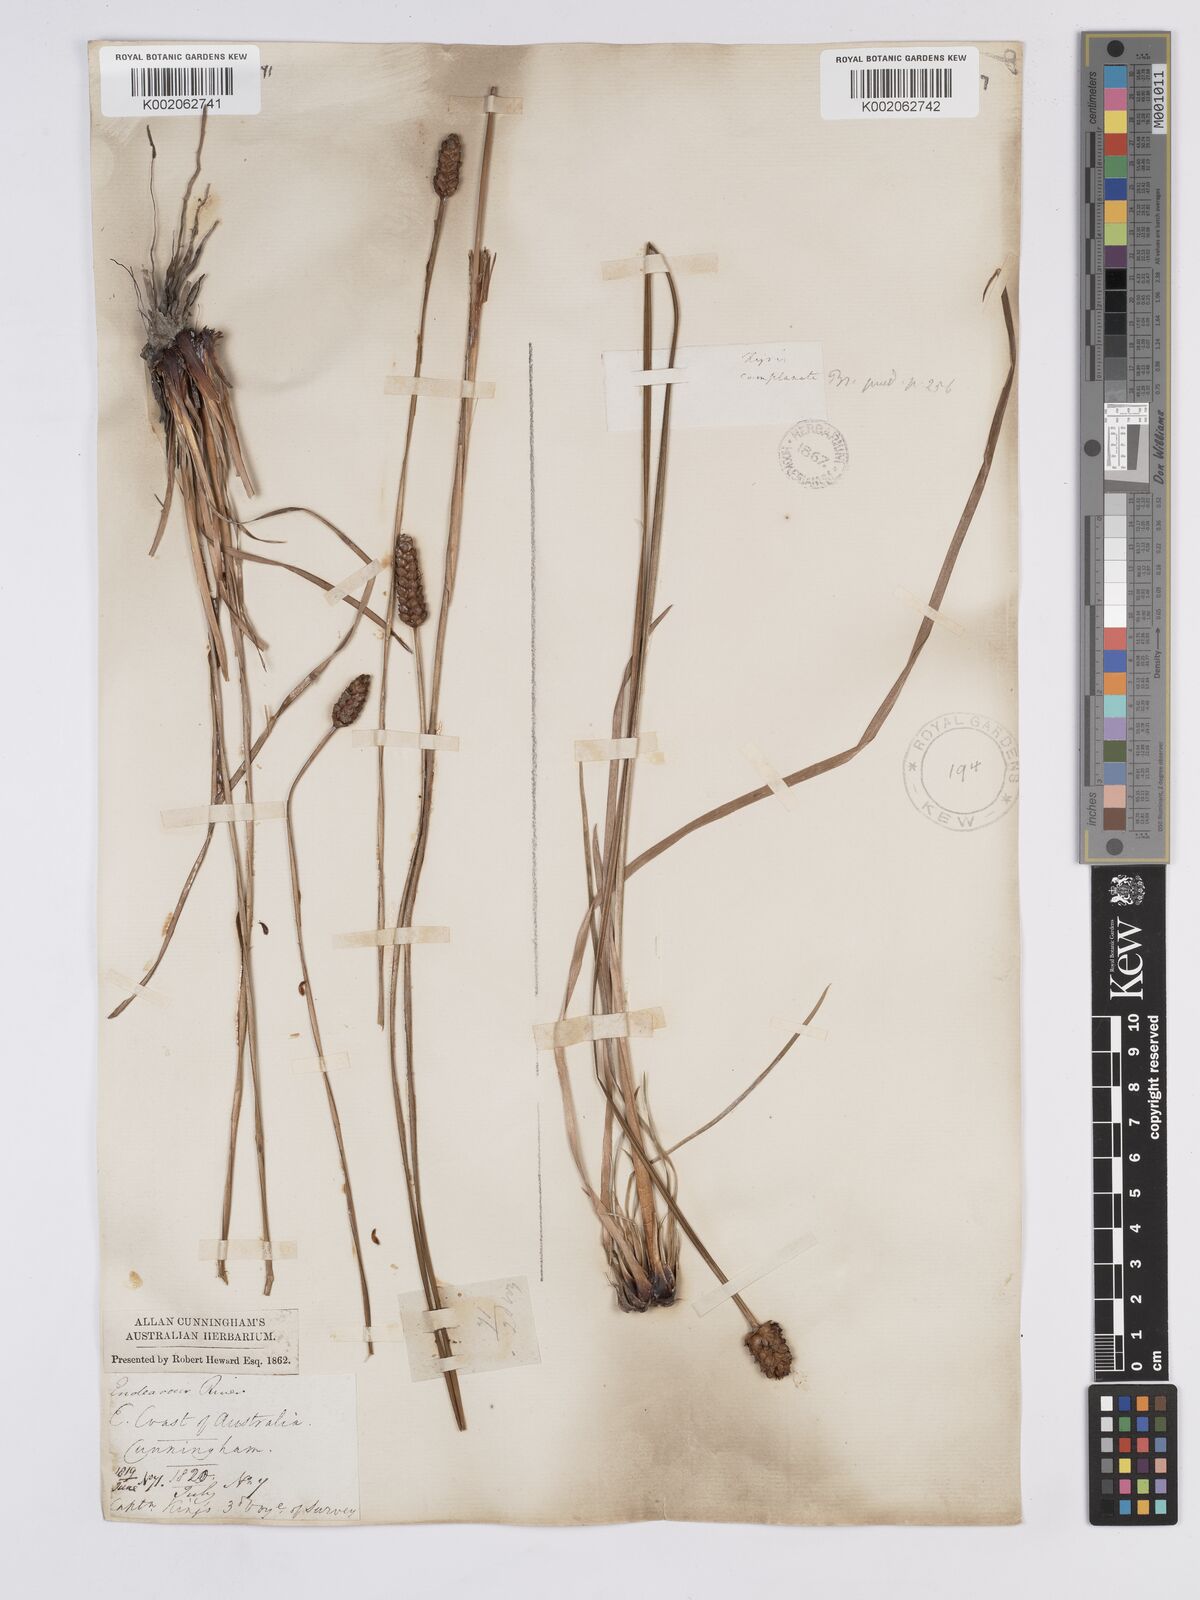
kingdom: Plantae
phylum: Tracheophyta
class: Liliopsida
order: Poales
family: Xyridaceae
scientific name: Xyridaceae
